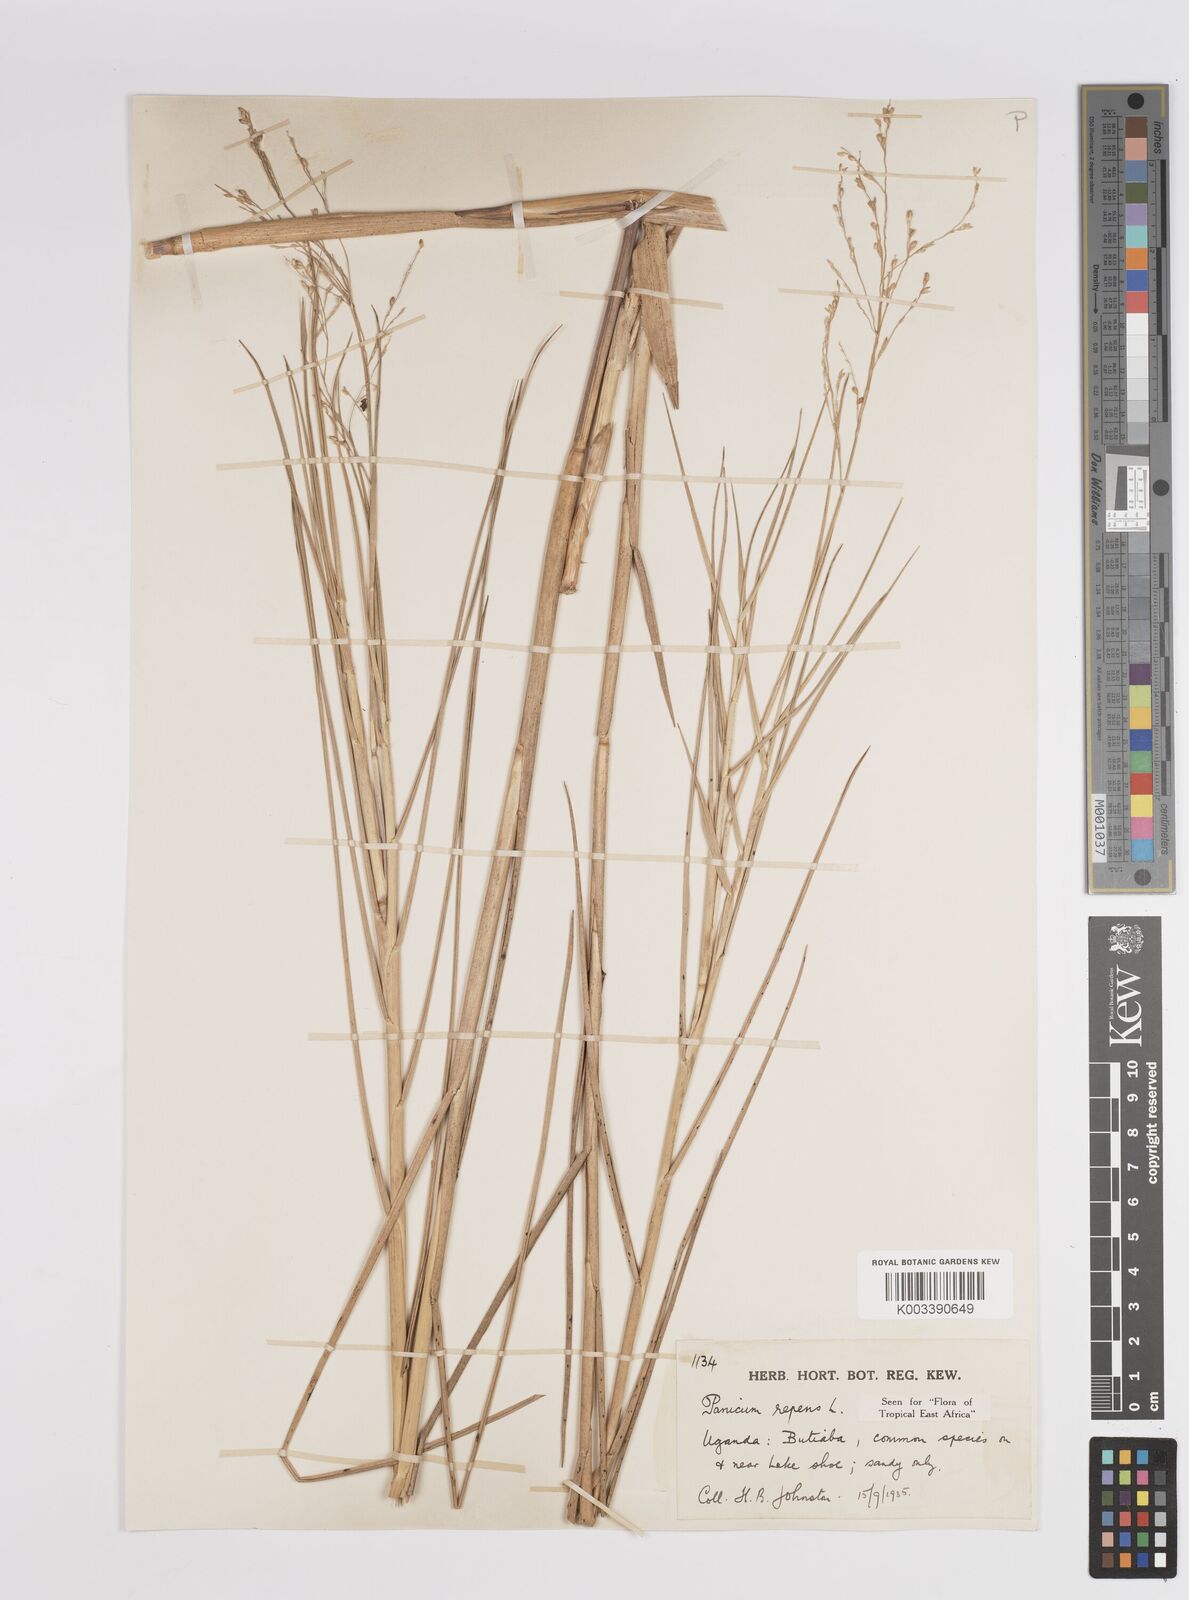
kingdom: Plantae
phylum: Tracheophyta
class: Liliopsida
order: Poales
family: Poaceae
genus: Panicum
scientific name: Panicum repens
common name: Torpedo grass
